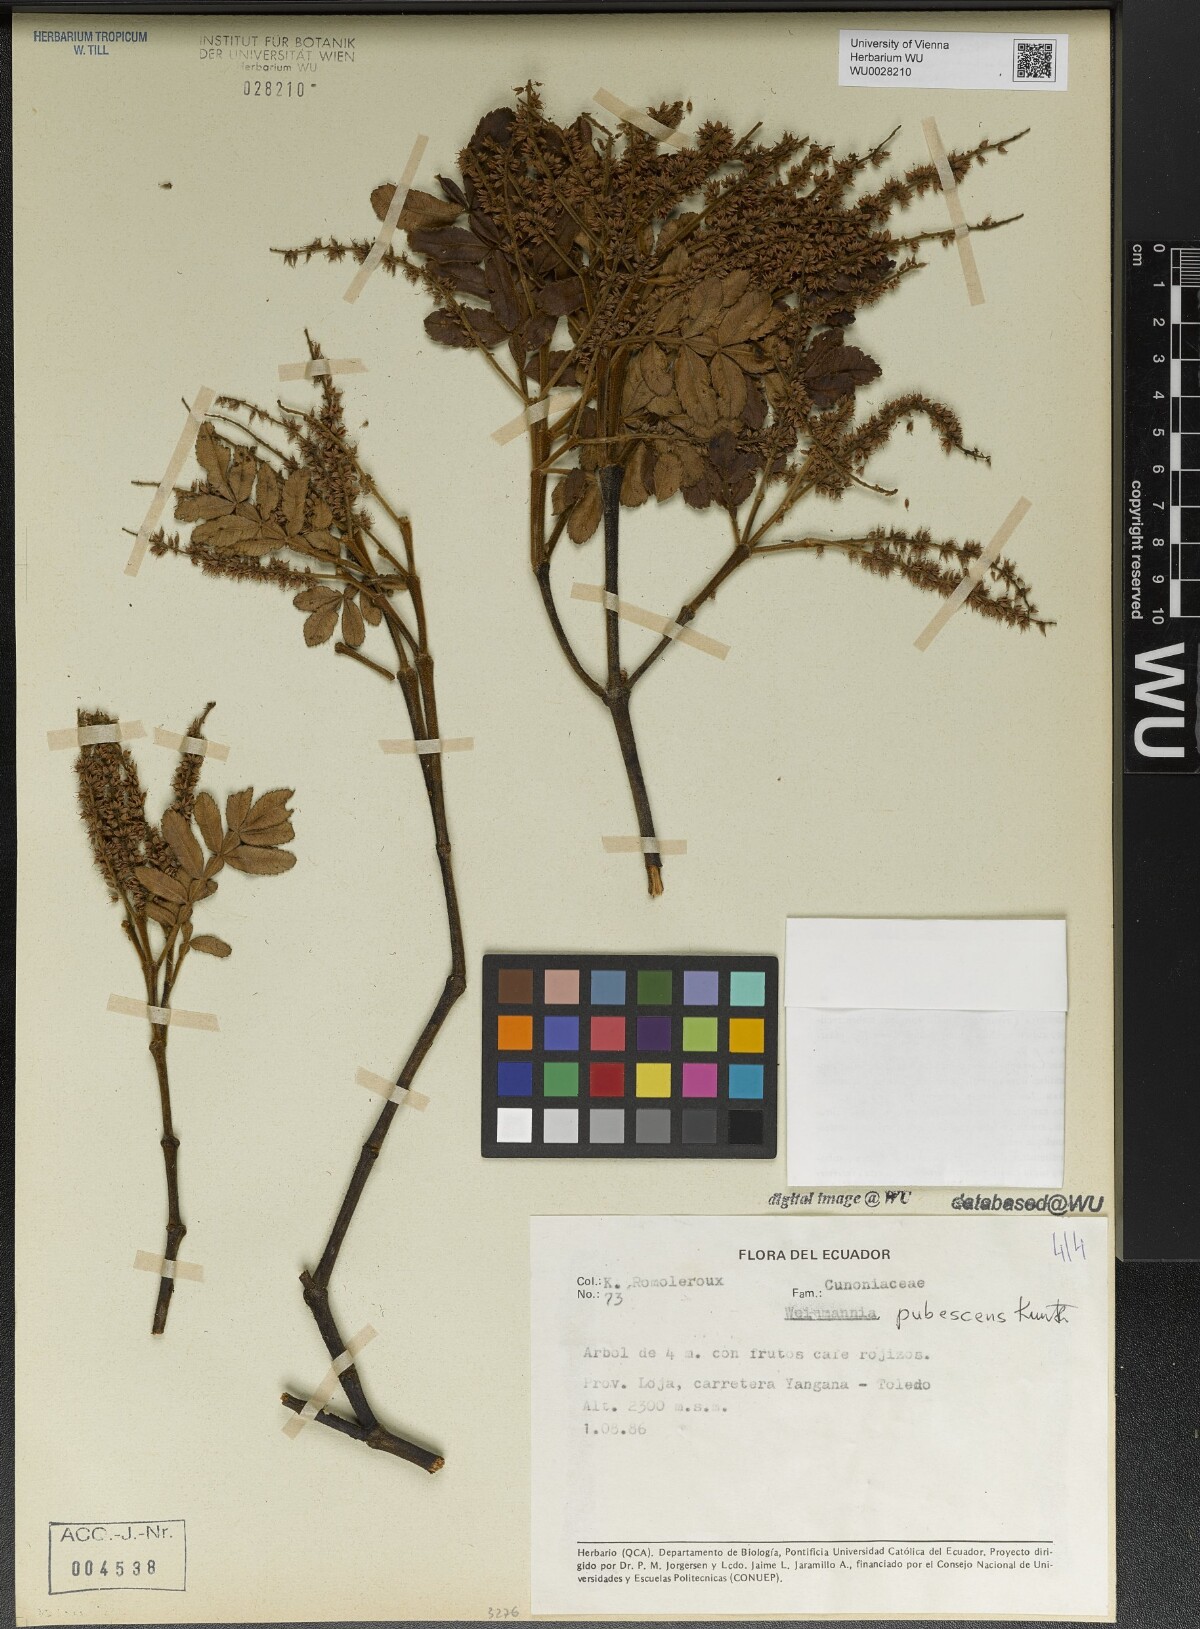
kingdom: Plantae
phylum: Tracheophyta
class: Magnoliopsida
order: Oxalidales
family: Cunoniaceae
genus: Weinmannia
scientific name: Weinmannia pubescens
